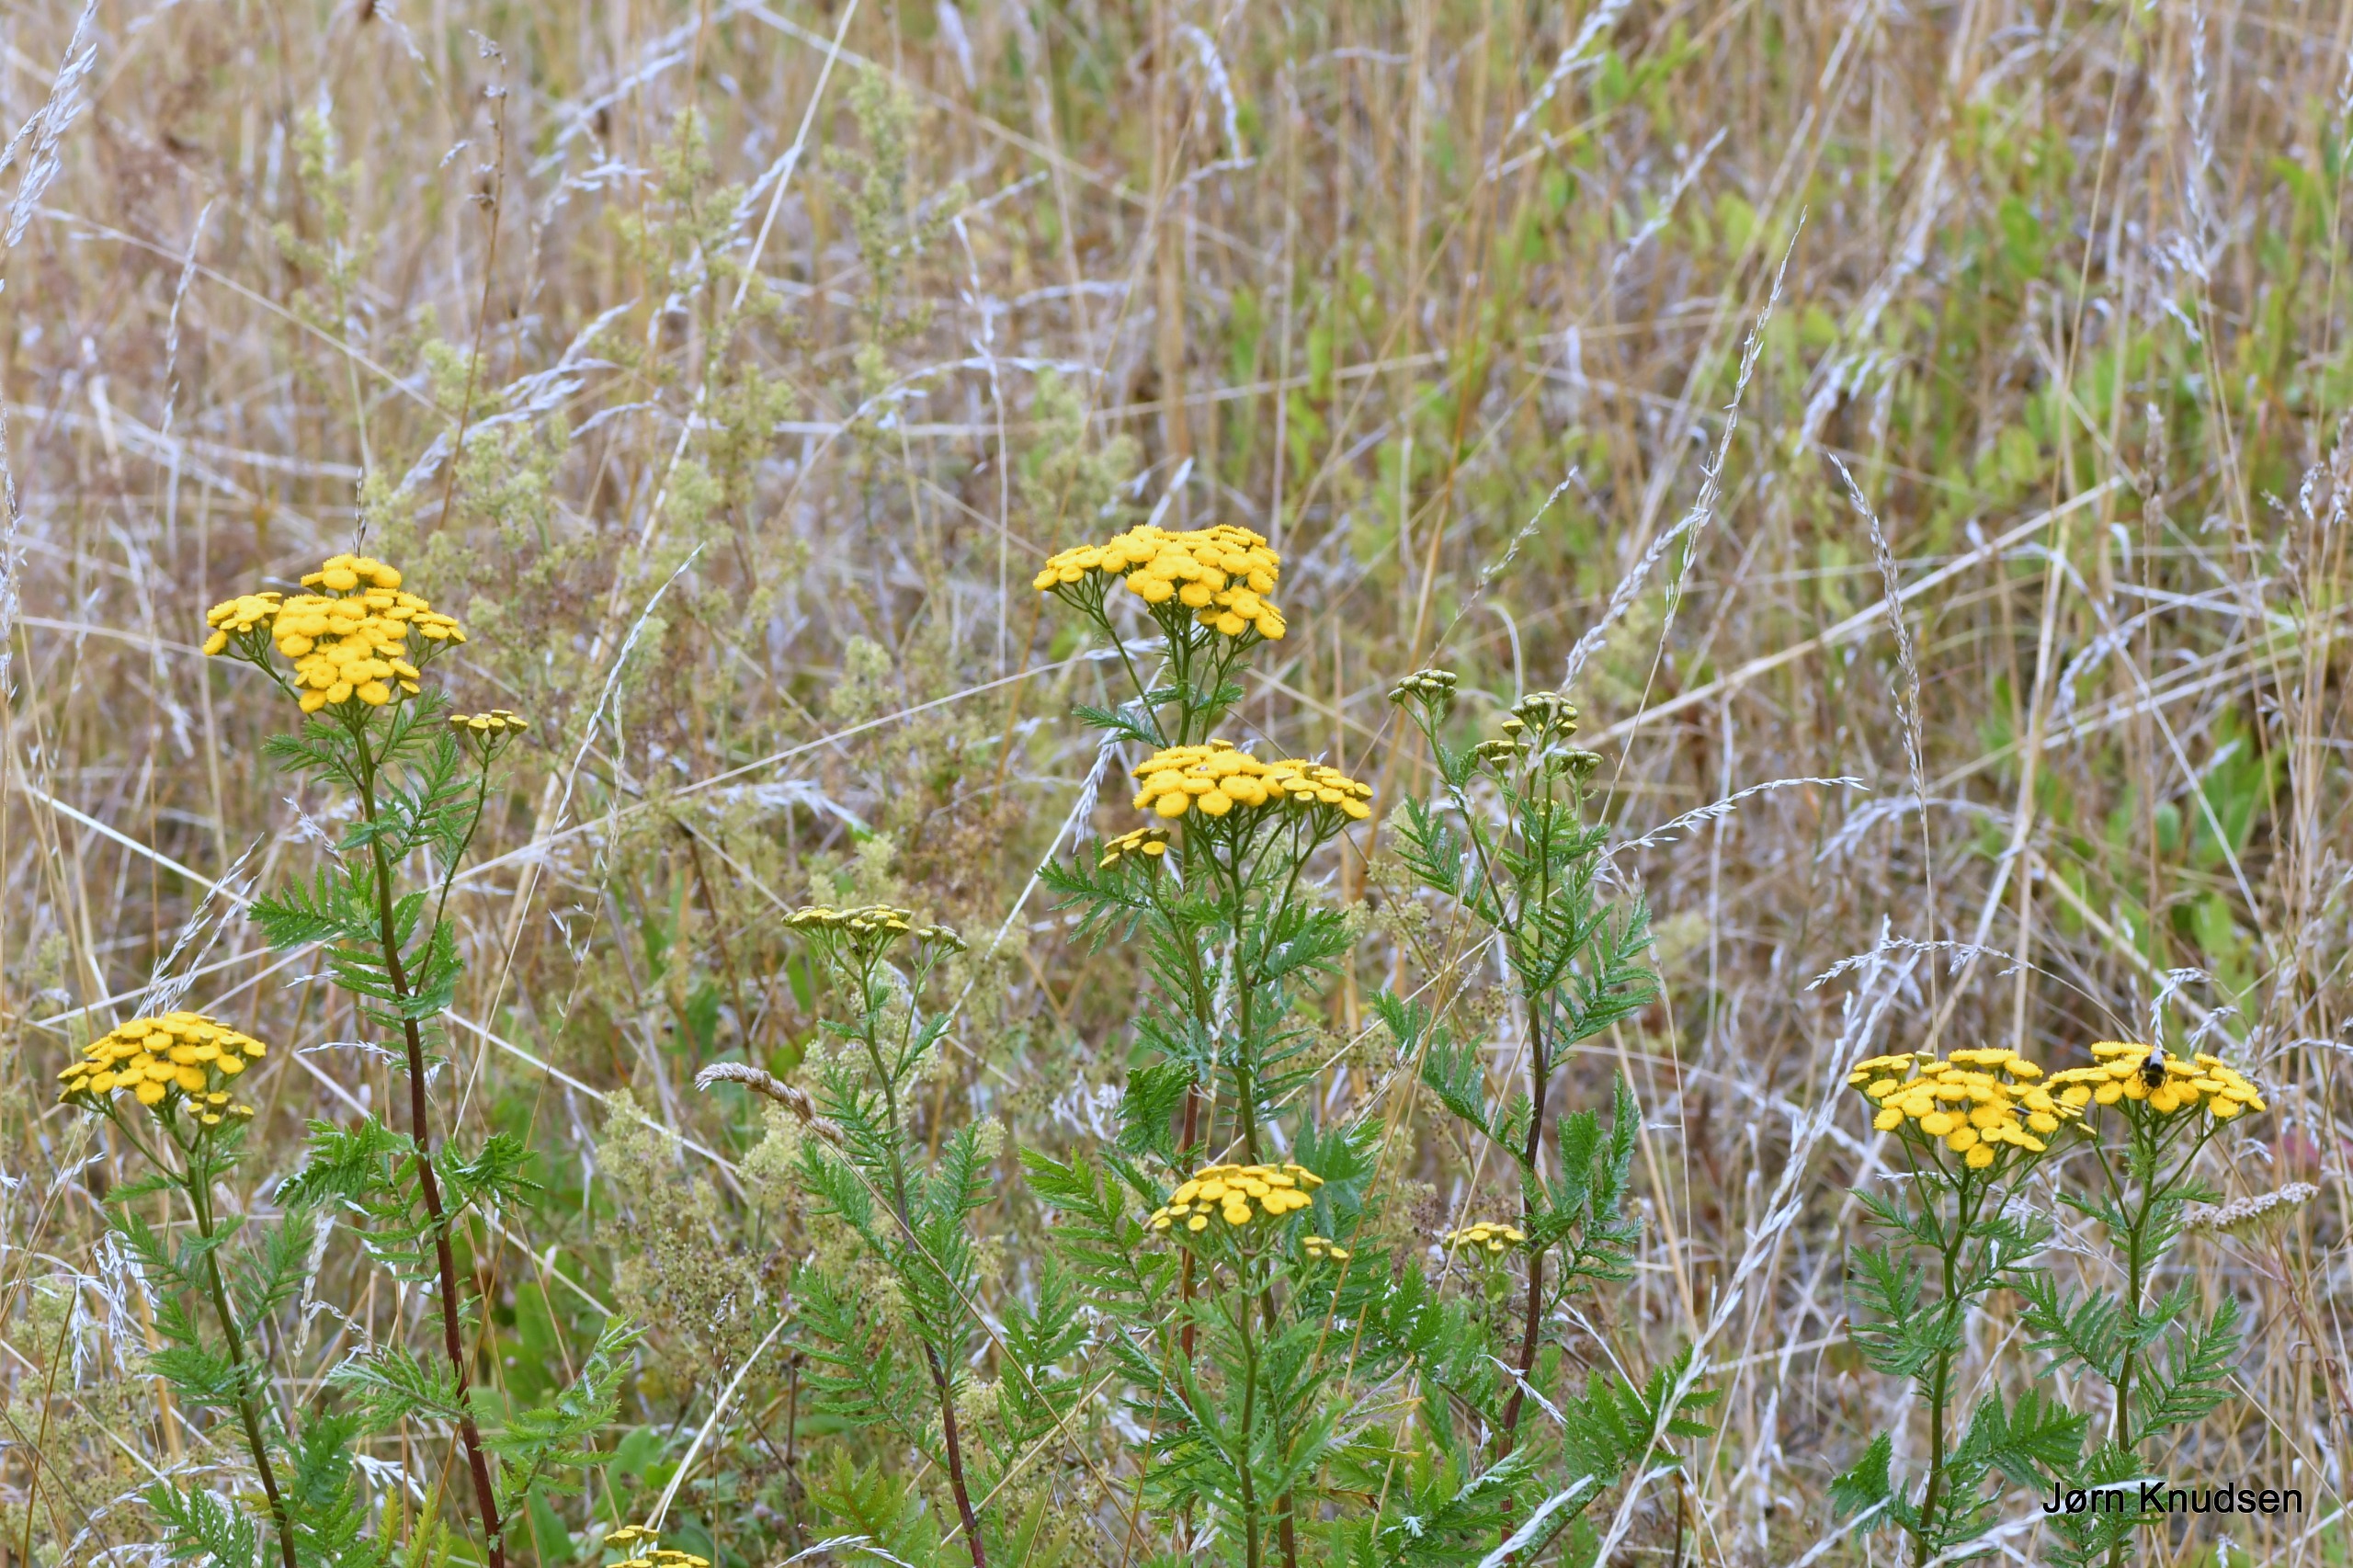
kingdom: Plantae
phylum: Tracheophyta
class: Magnoliopsida
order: Asterales
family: Asteraceae
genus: Tanacetum
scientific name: Tanacetum vulgare
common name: Rejnfan
